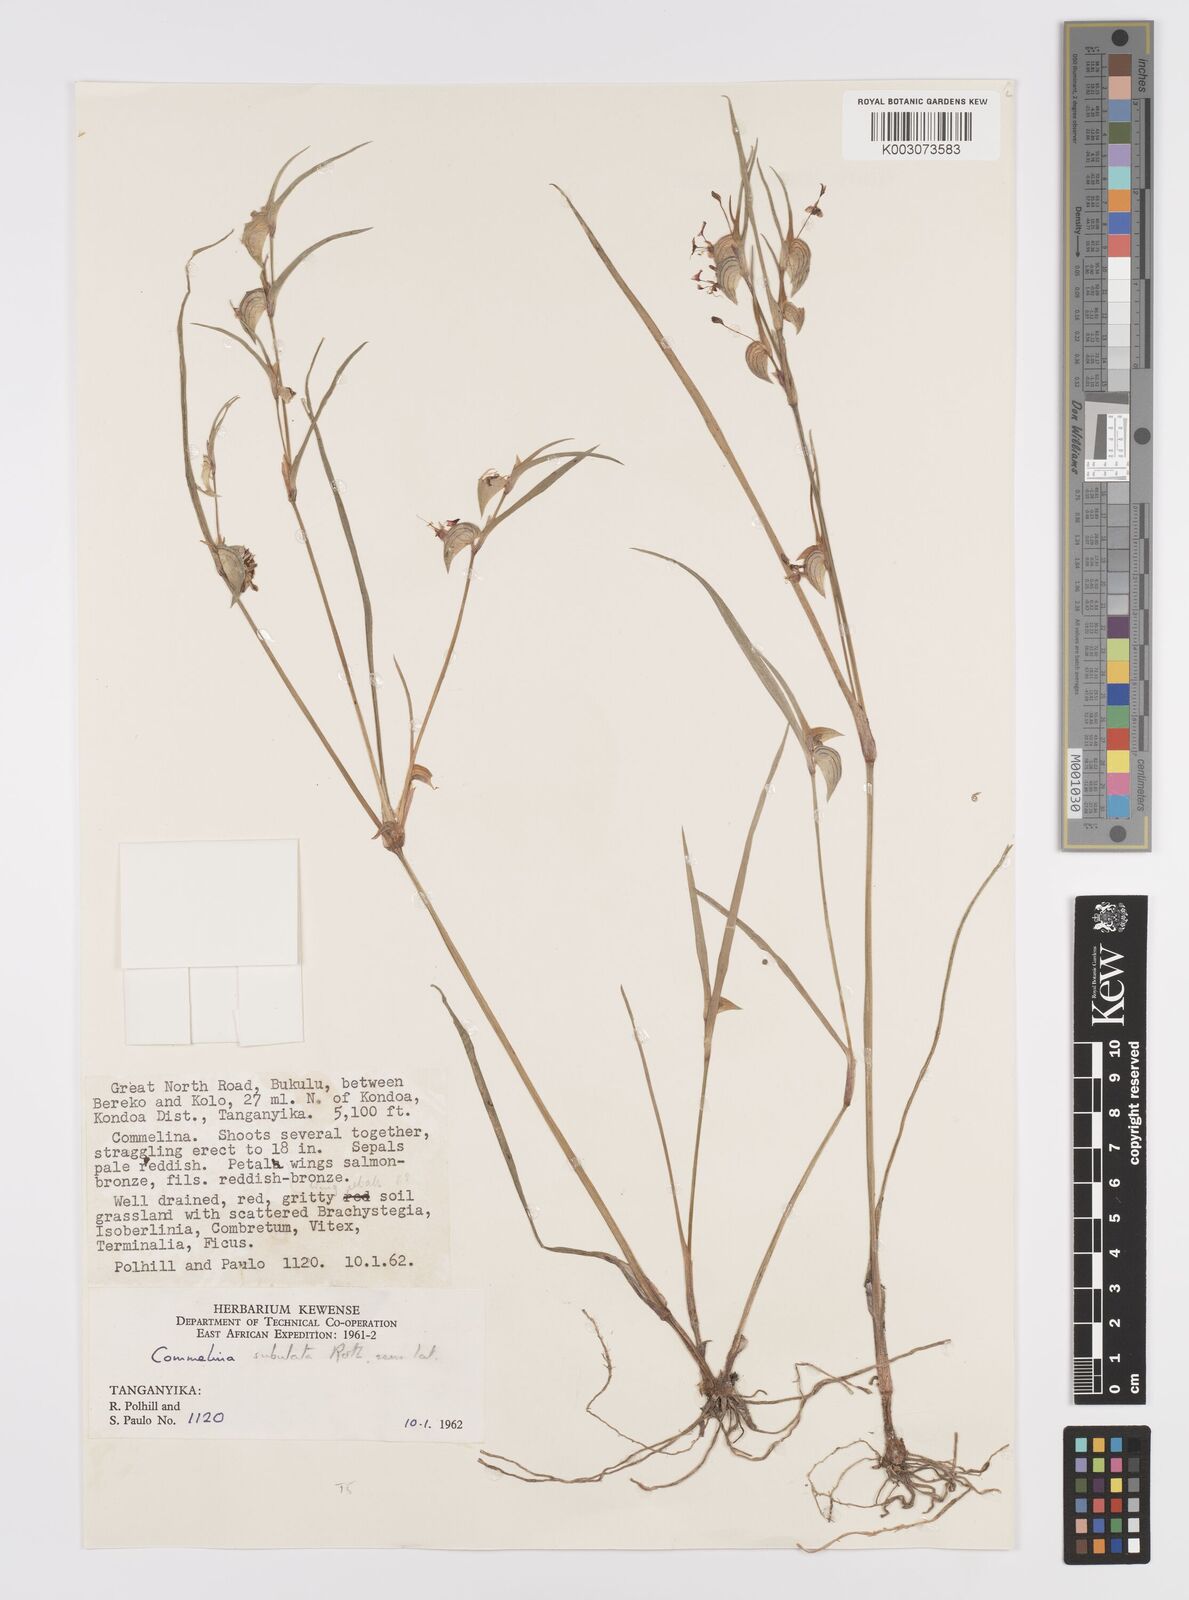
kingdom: Plantae
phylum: Tracheophyta
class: Liliopsida
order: Commelinales
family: Commelinaceae
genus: Commelina
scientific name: Commelina subulata
